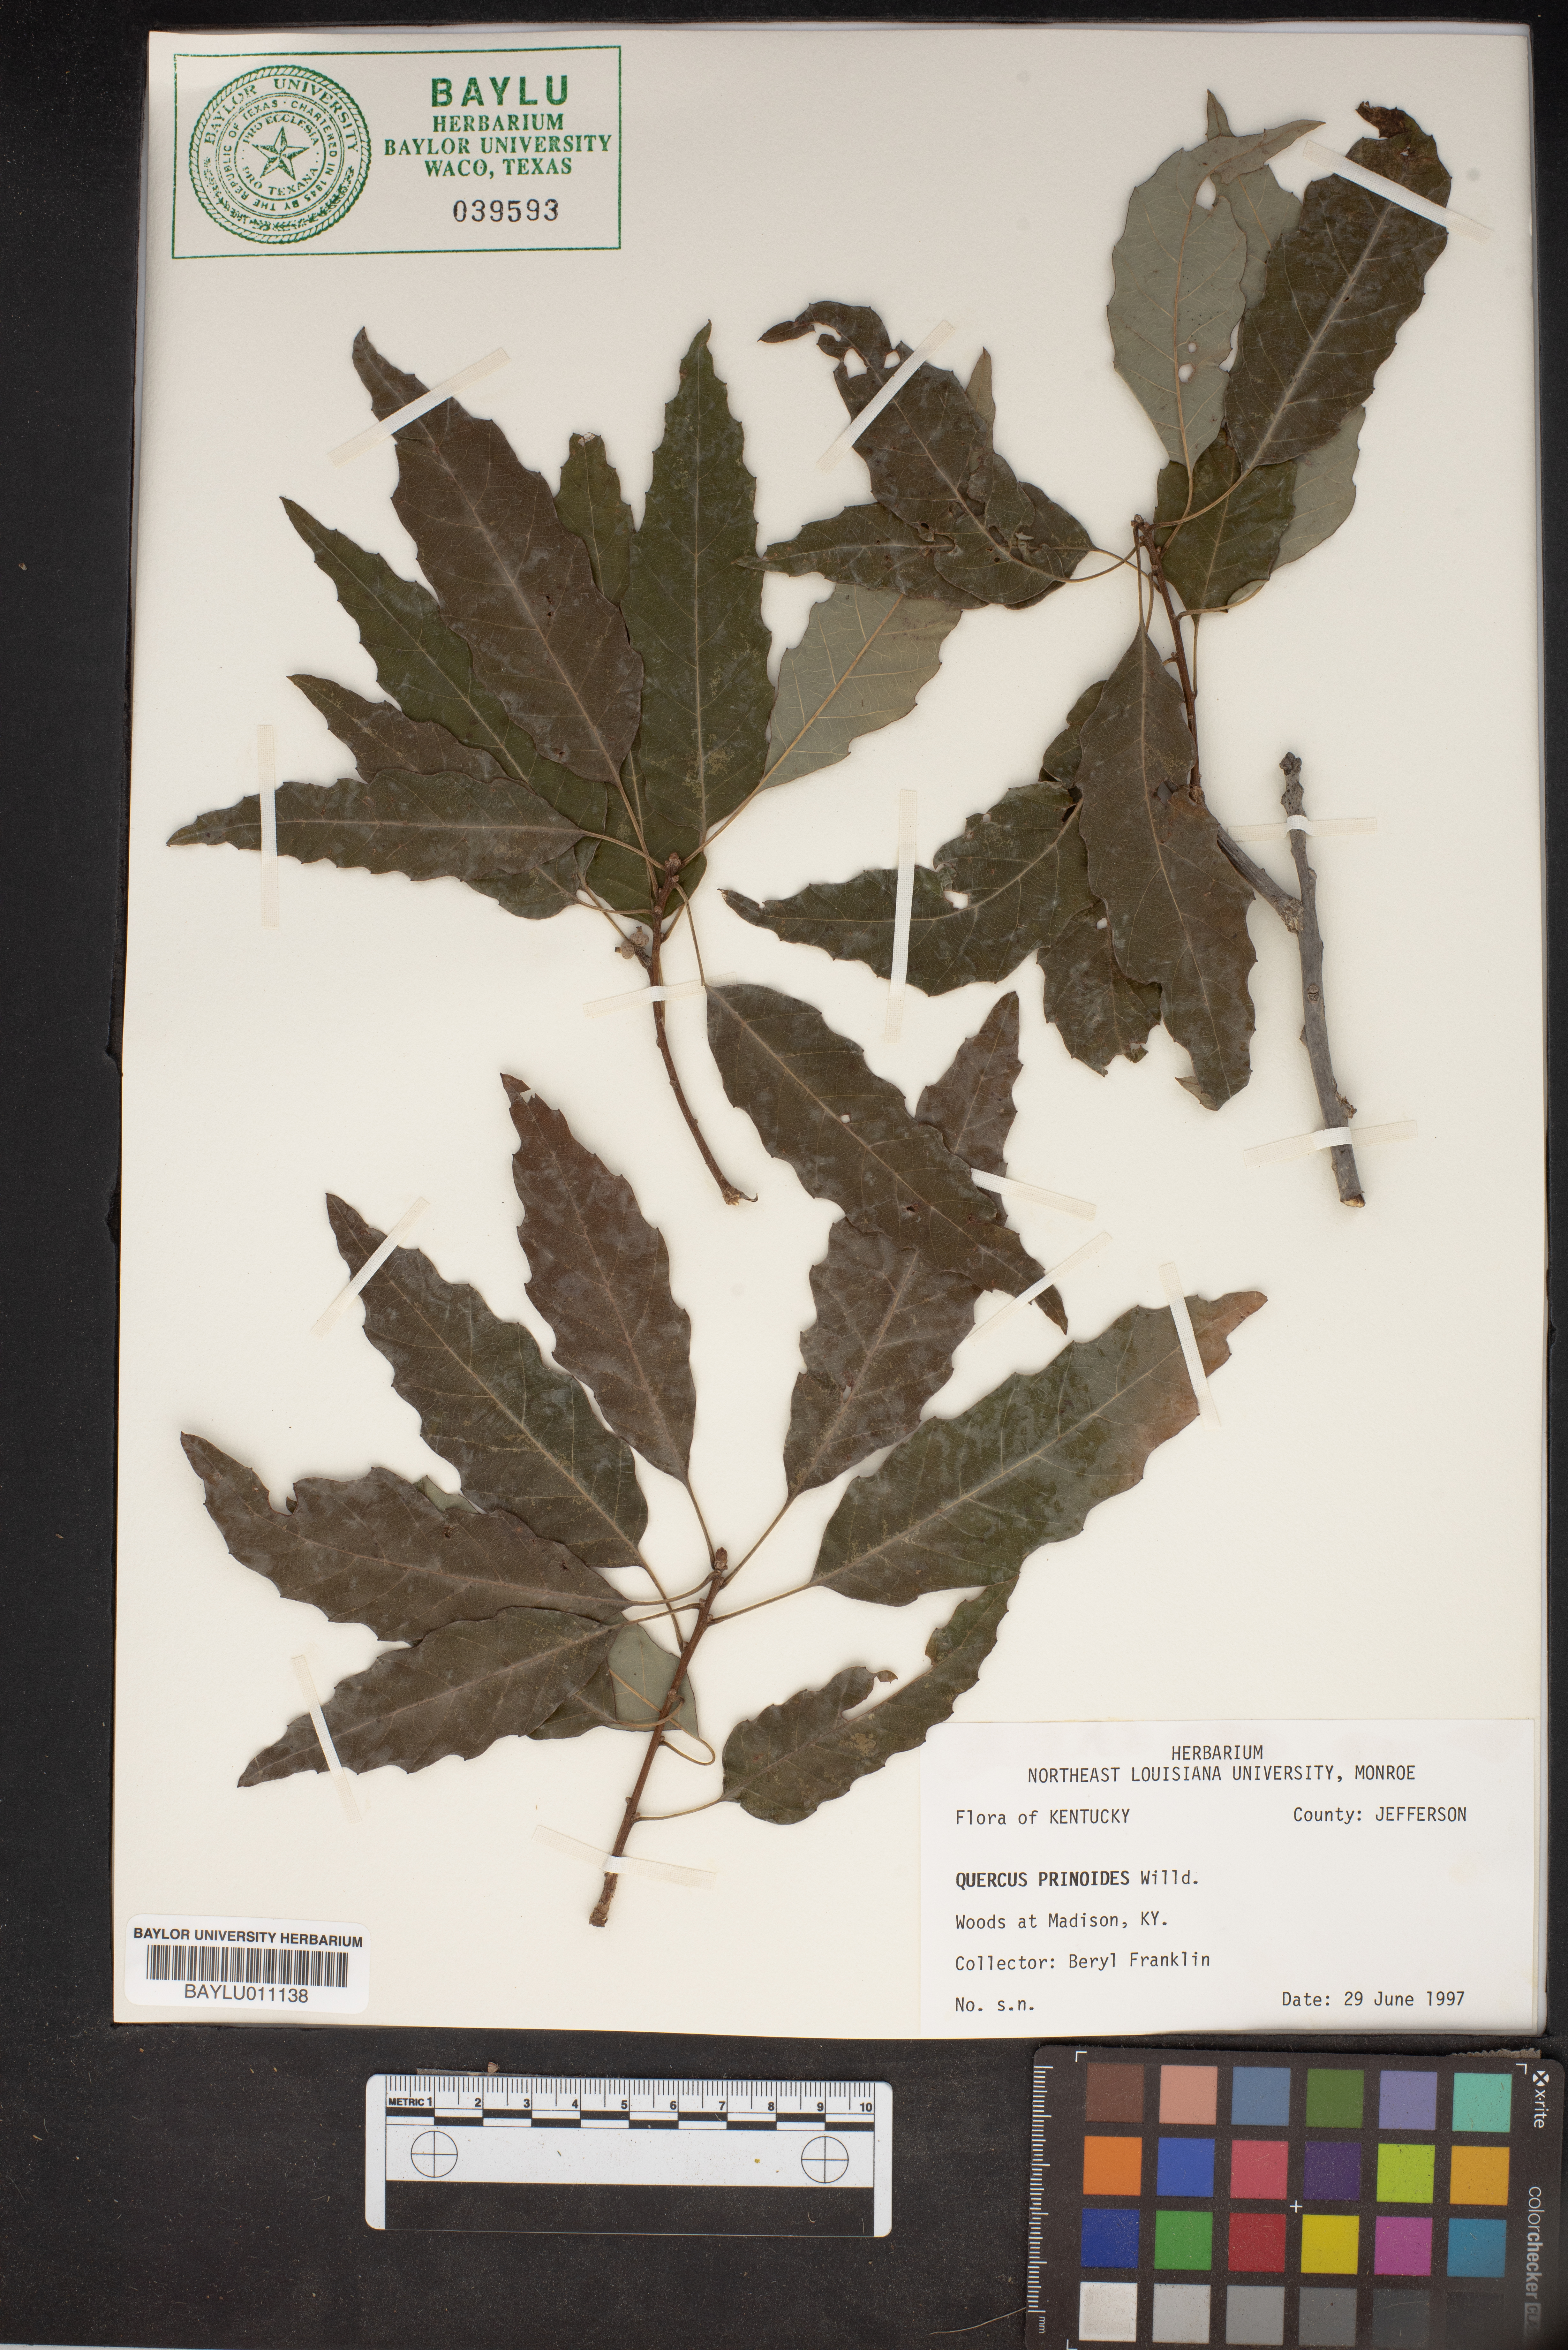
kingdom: Plantae
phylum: Tracheophyta
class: Magnoliopsida
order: Fagales
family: Fagaceae
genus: Quercus
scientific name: Quercus prinoides
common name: Dwarf chinkapin oak
